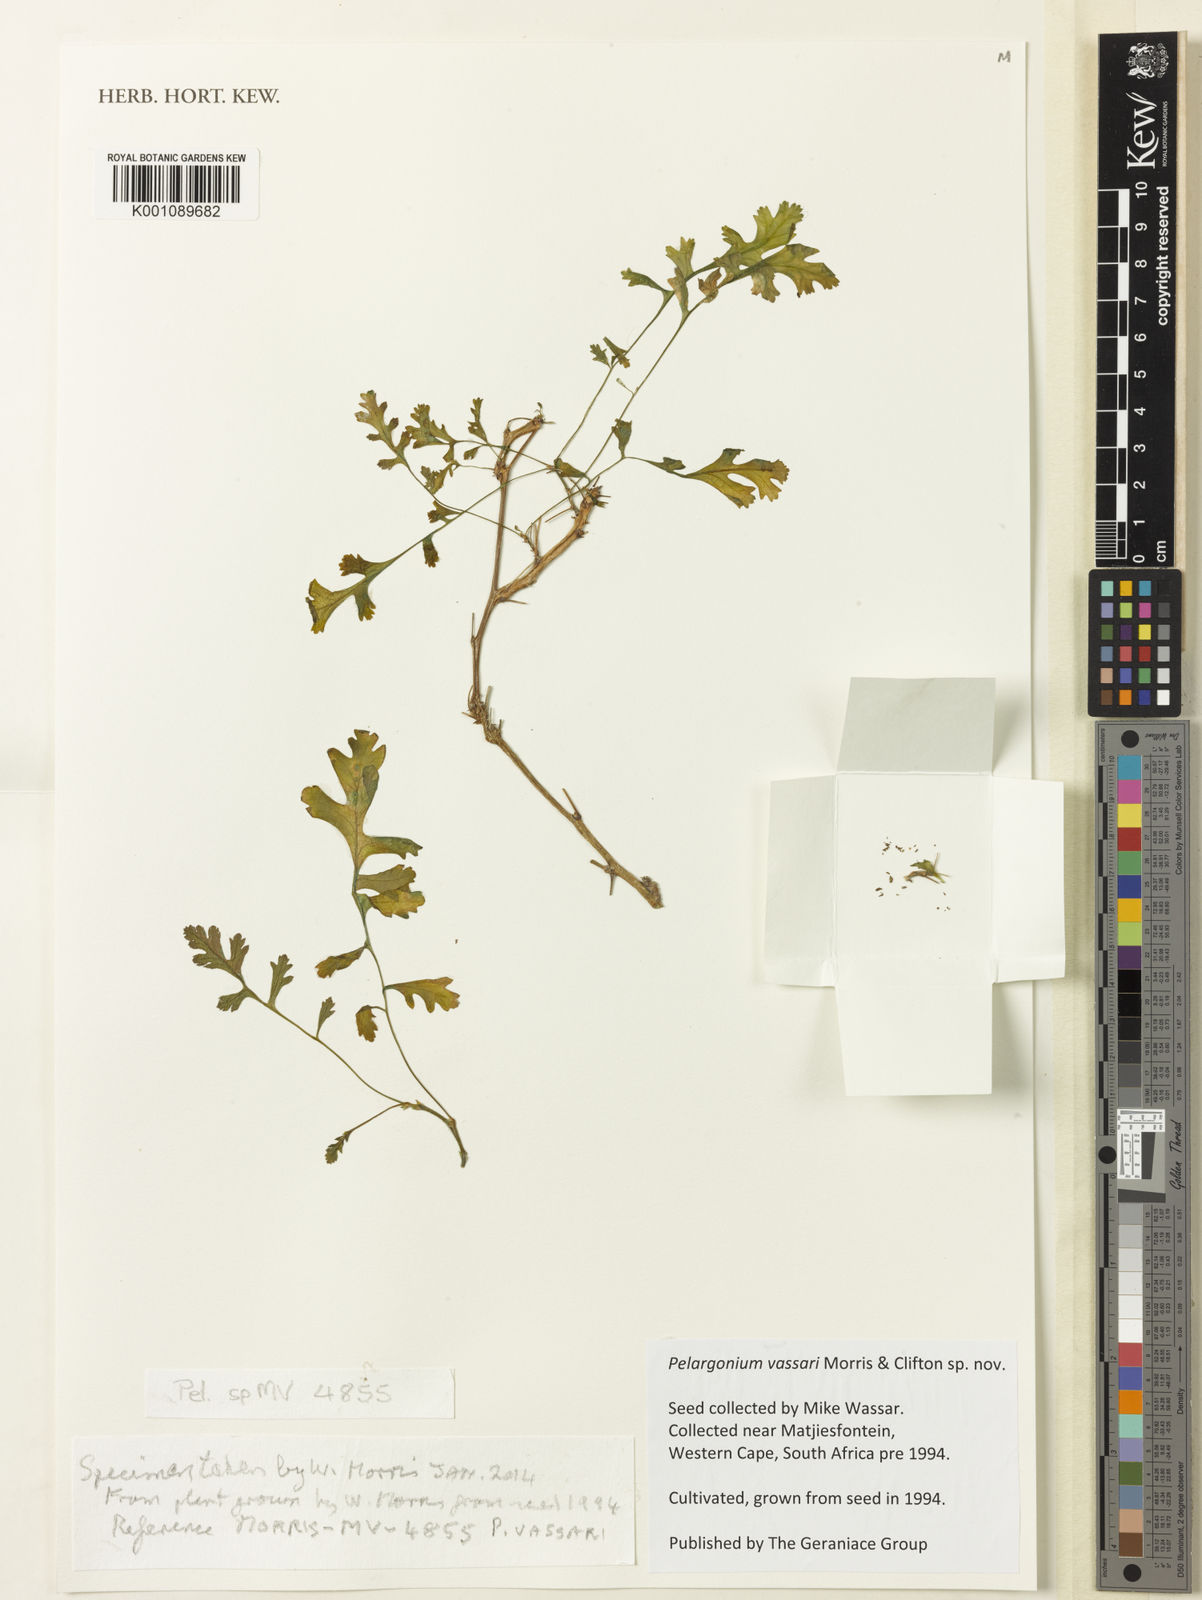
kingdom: Plantae
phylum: Tracheophyta
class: Magnoliopsida
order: Geraniales
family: Geraniaceae
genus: Pelargonium
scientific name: Pelargonium
